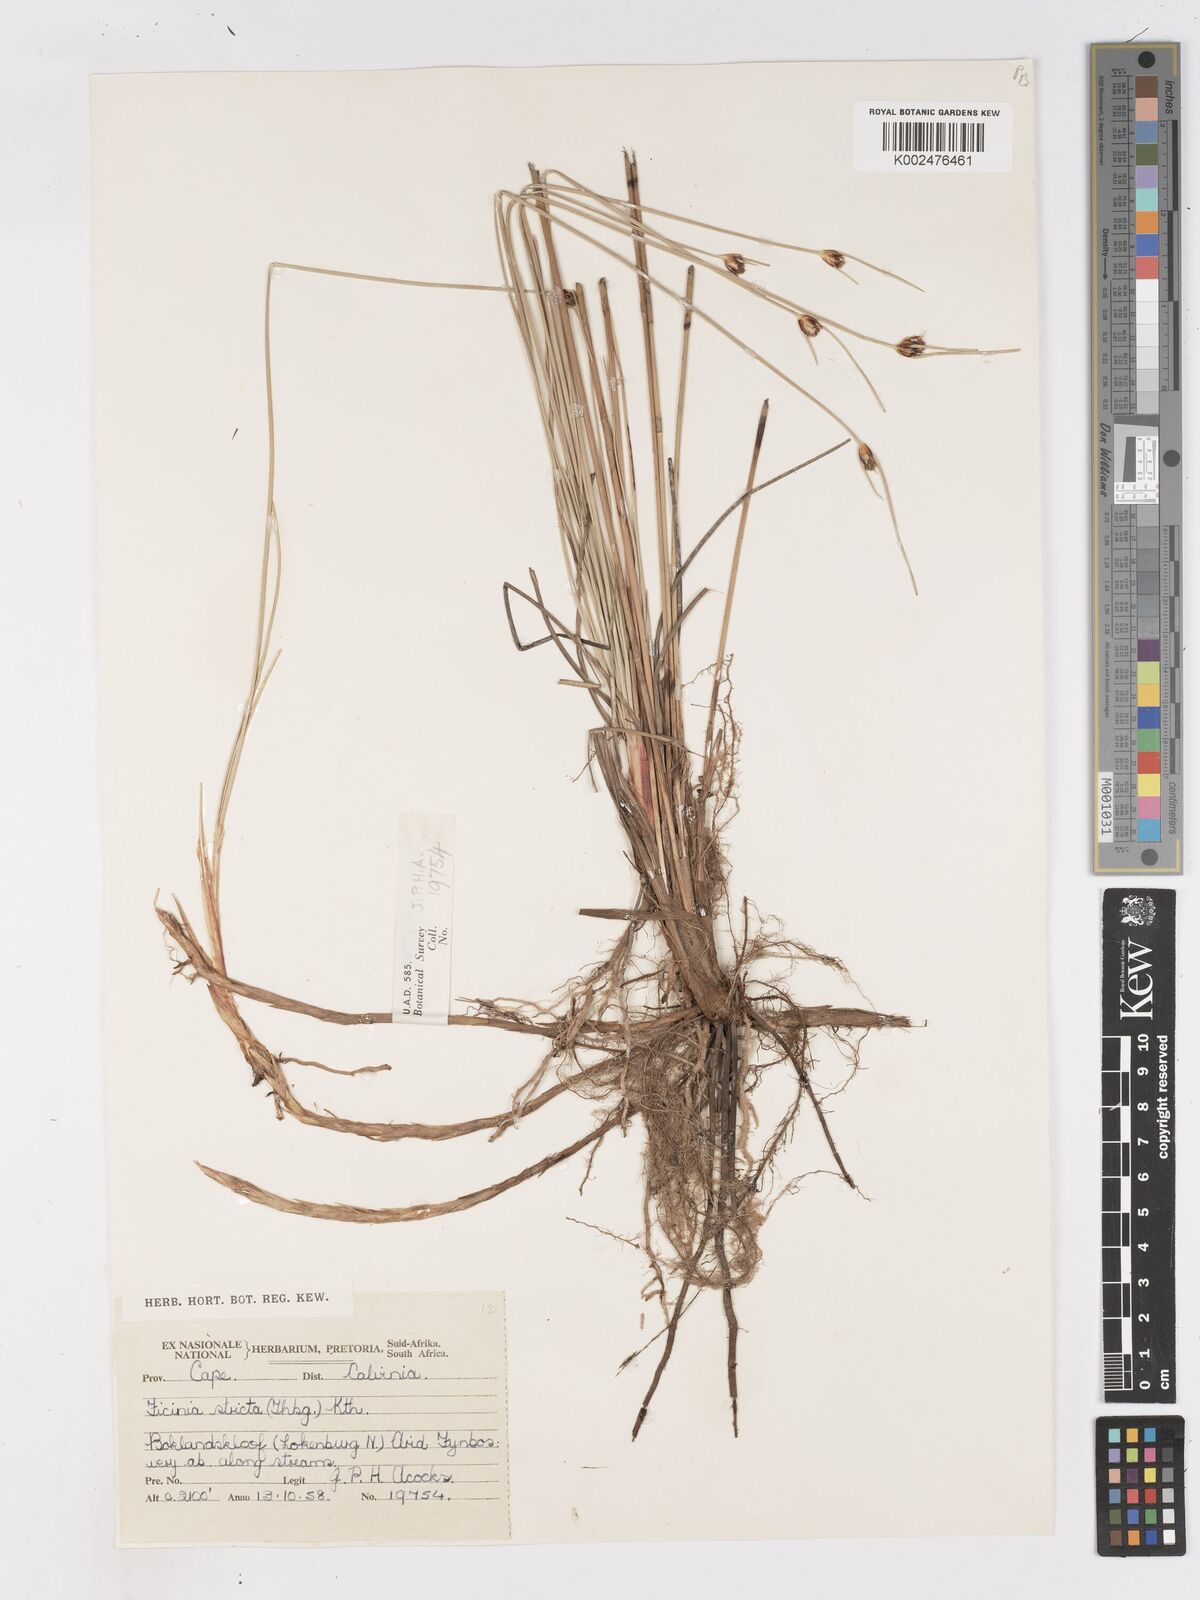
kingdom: Plantae
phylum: Tracheophyta
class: Liliopsida
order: Poales
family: Cyperaceae
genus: Ficinia
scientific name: Ficinia indica
